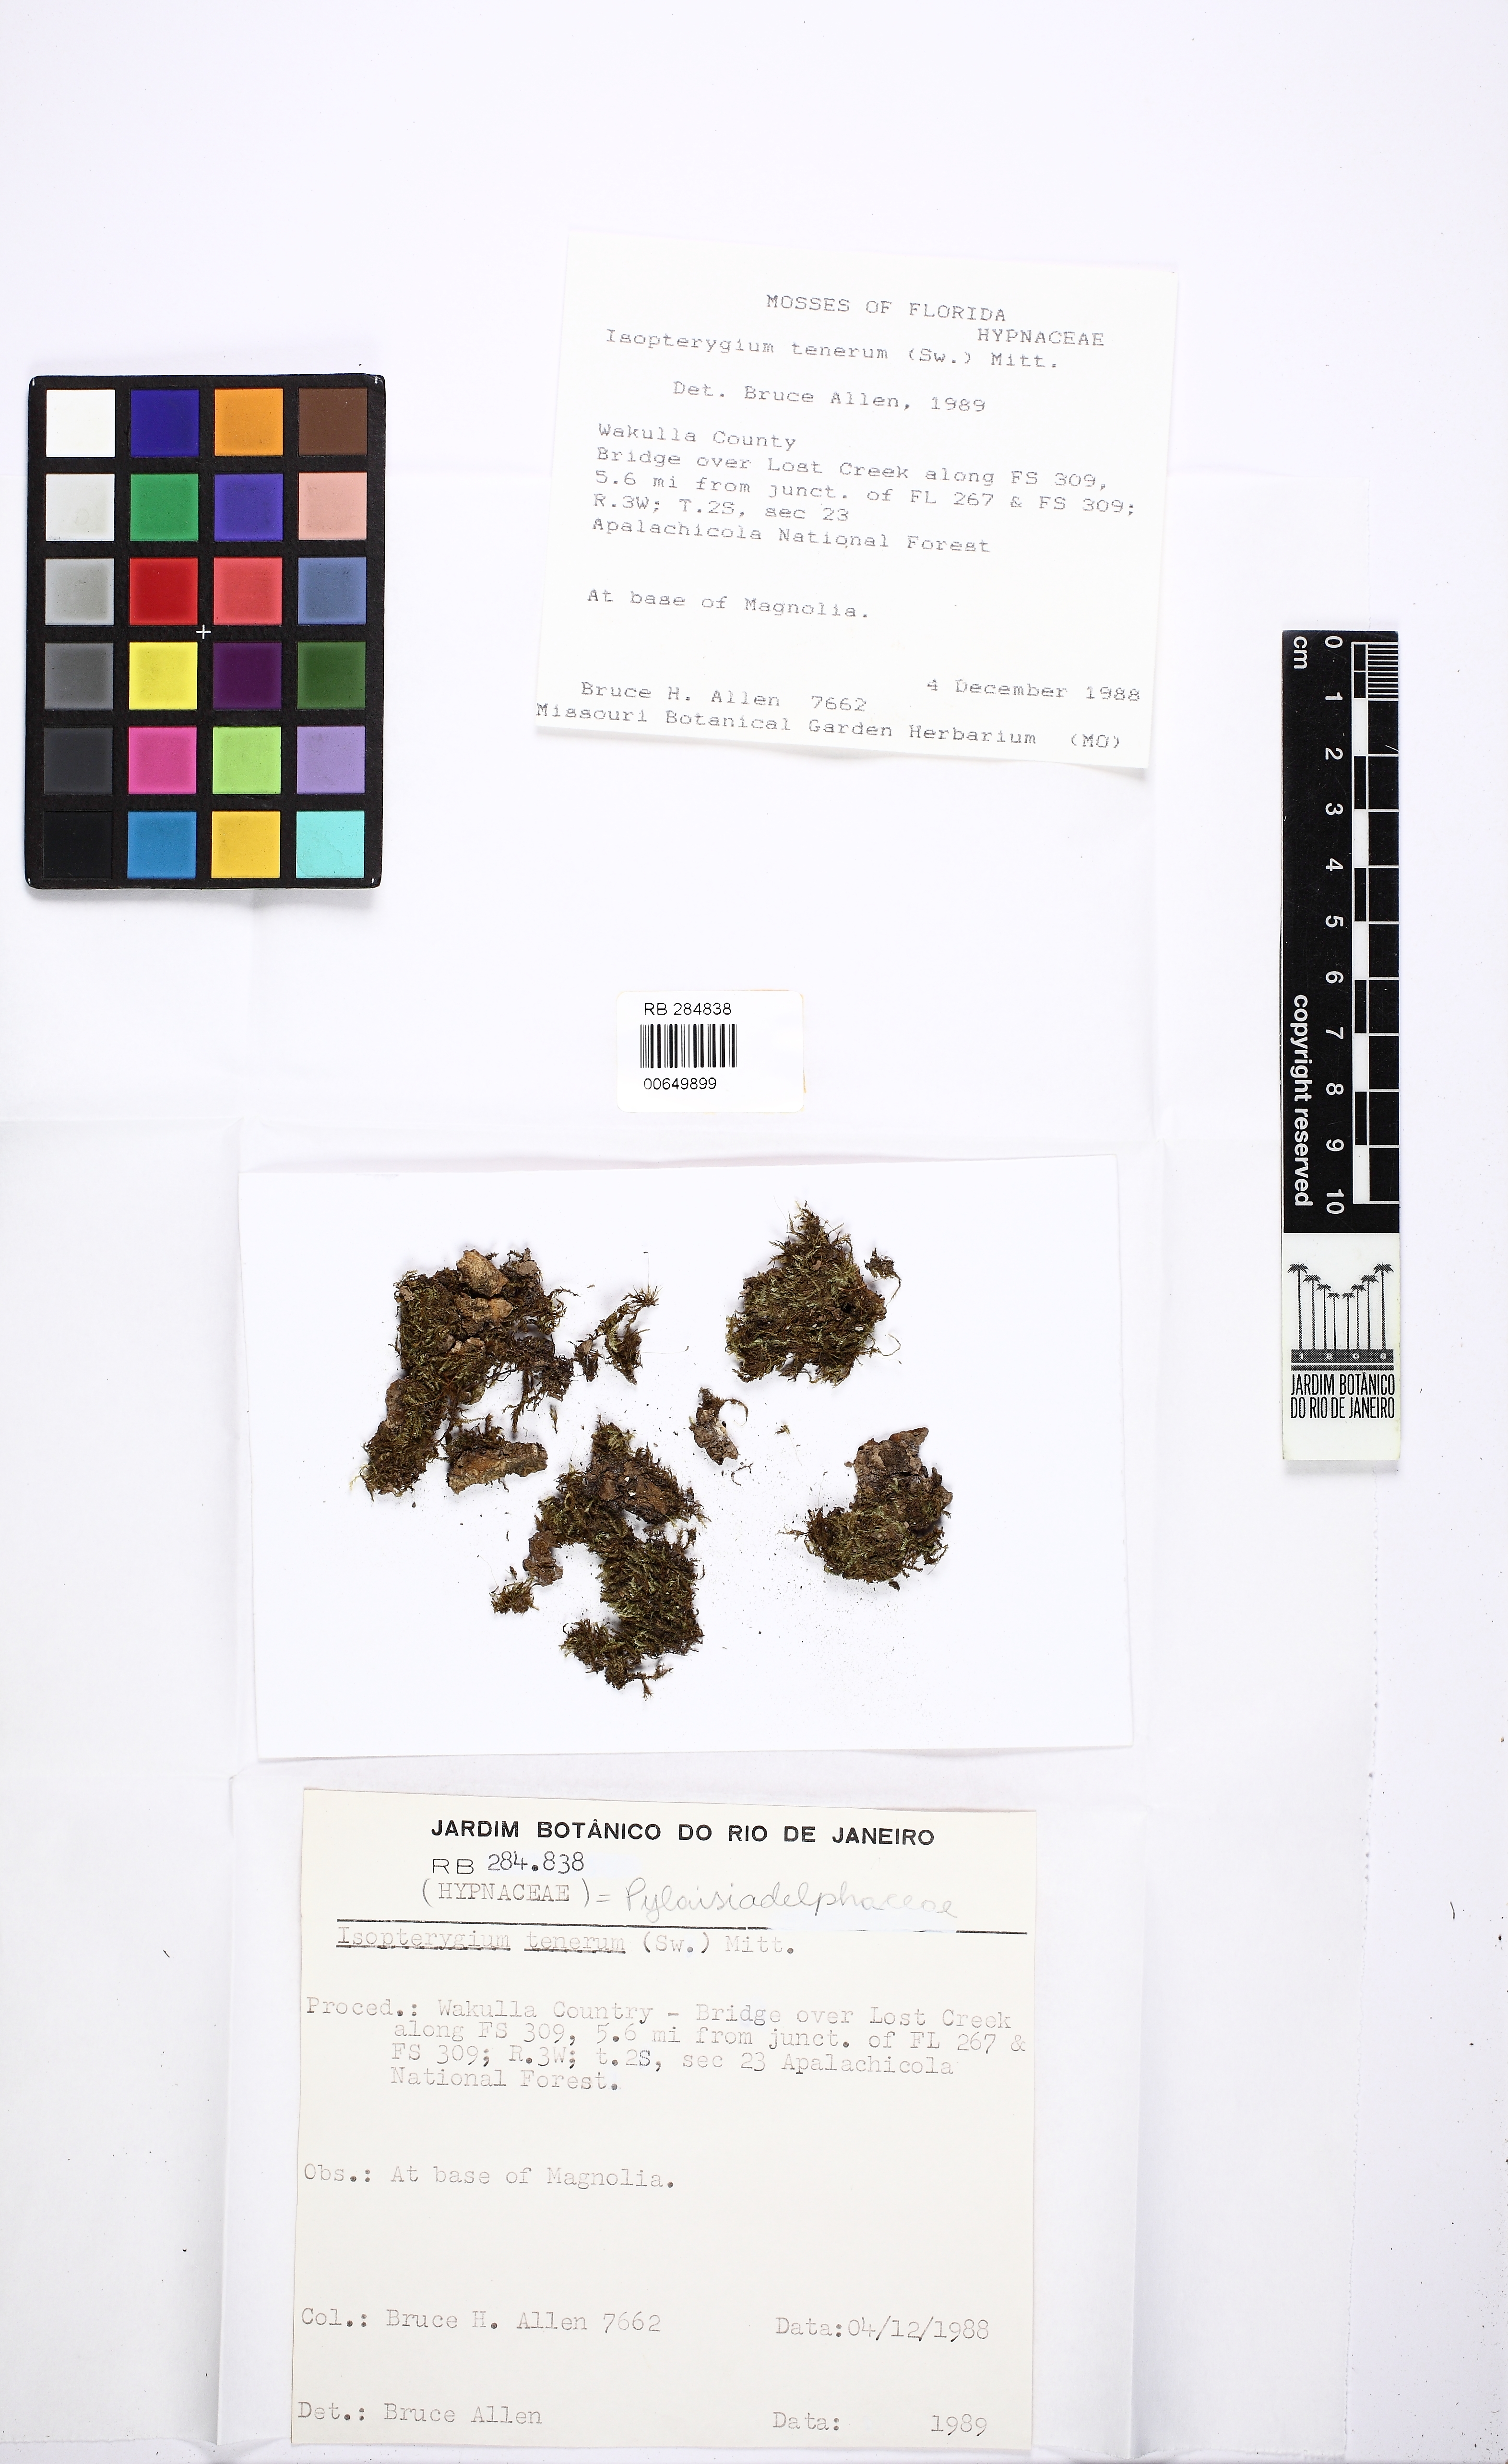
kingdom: Plantae
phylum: Bryophyta
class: Bryopsida
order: Hypnales
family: Pylaisiadelphaceae
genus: Isopterygium
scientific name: Isopterygium tenerum
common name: Isopterygium moss
